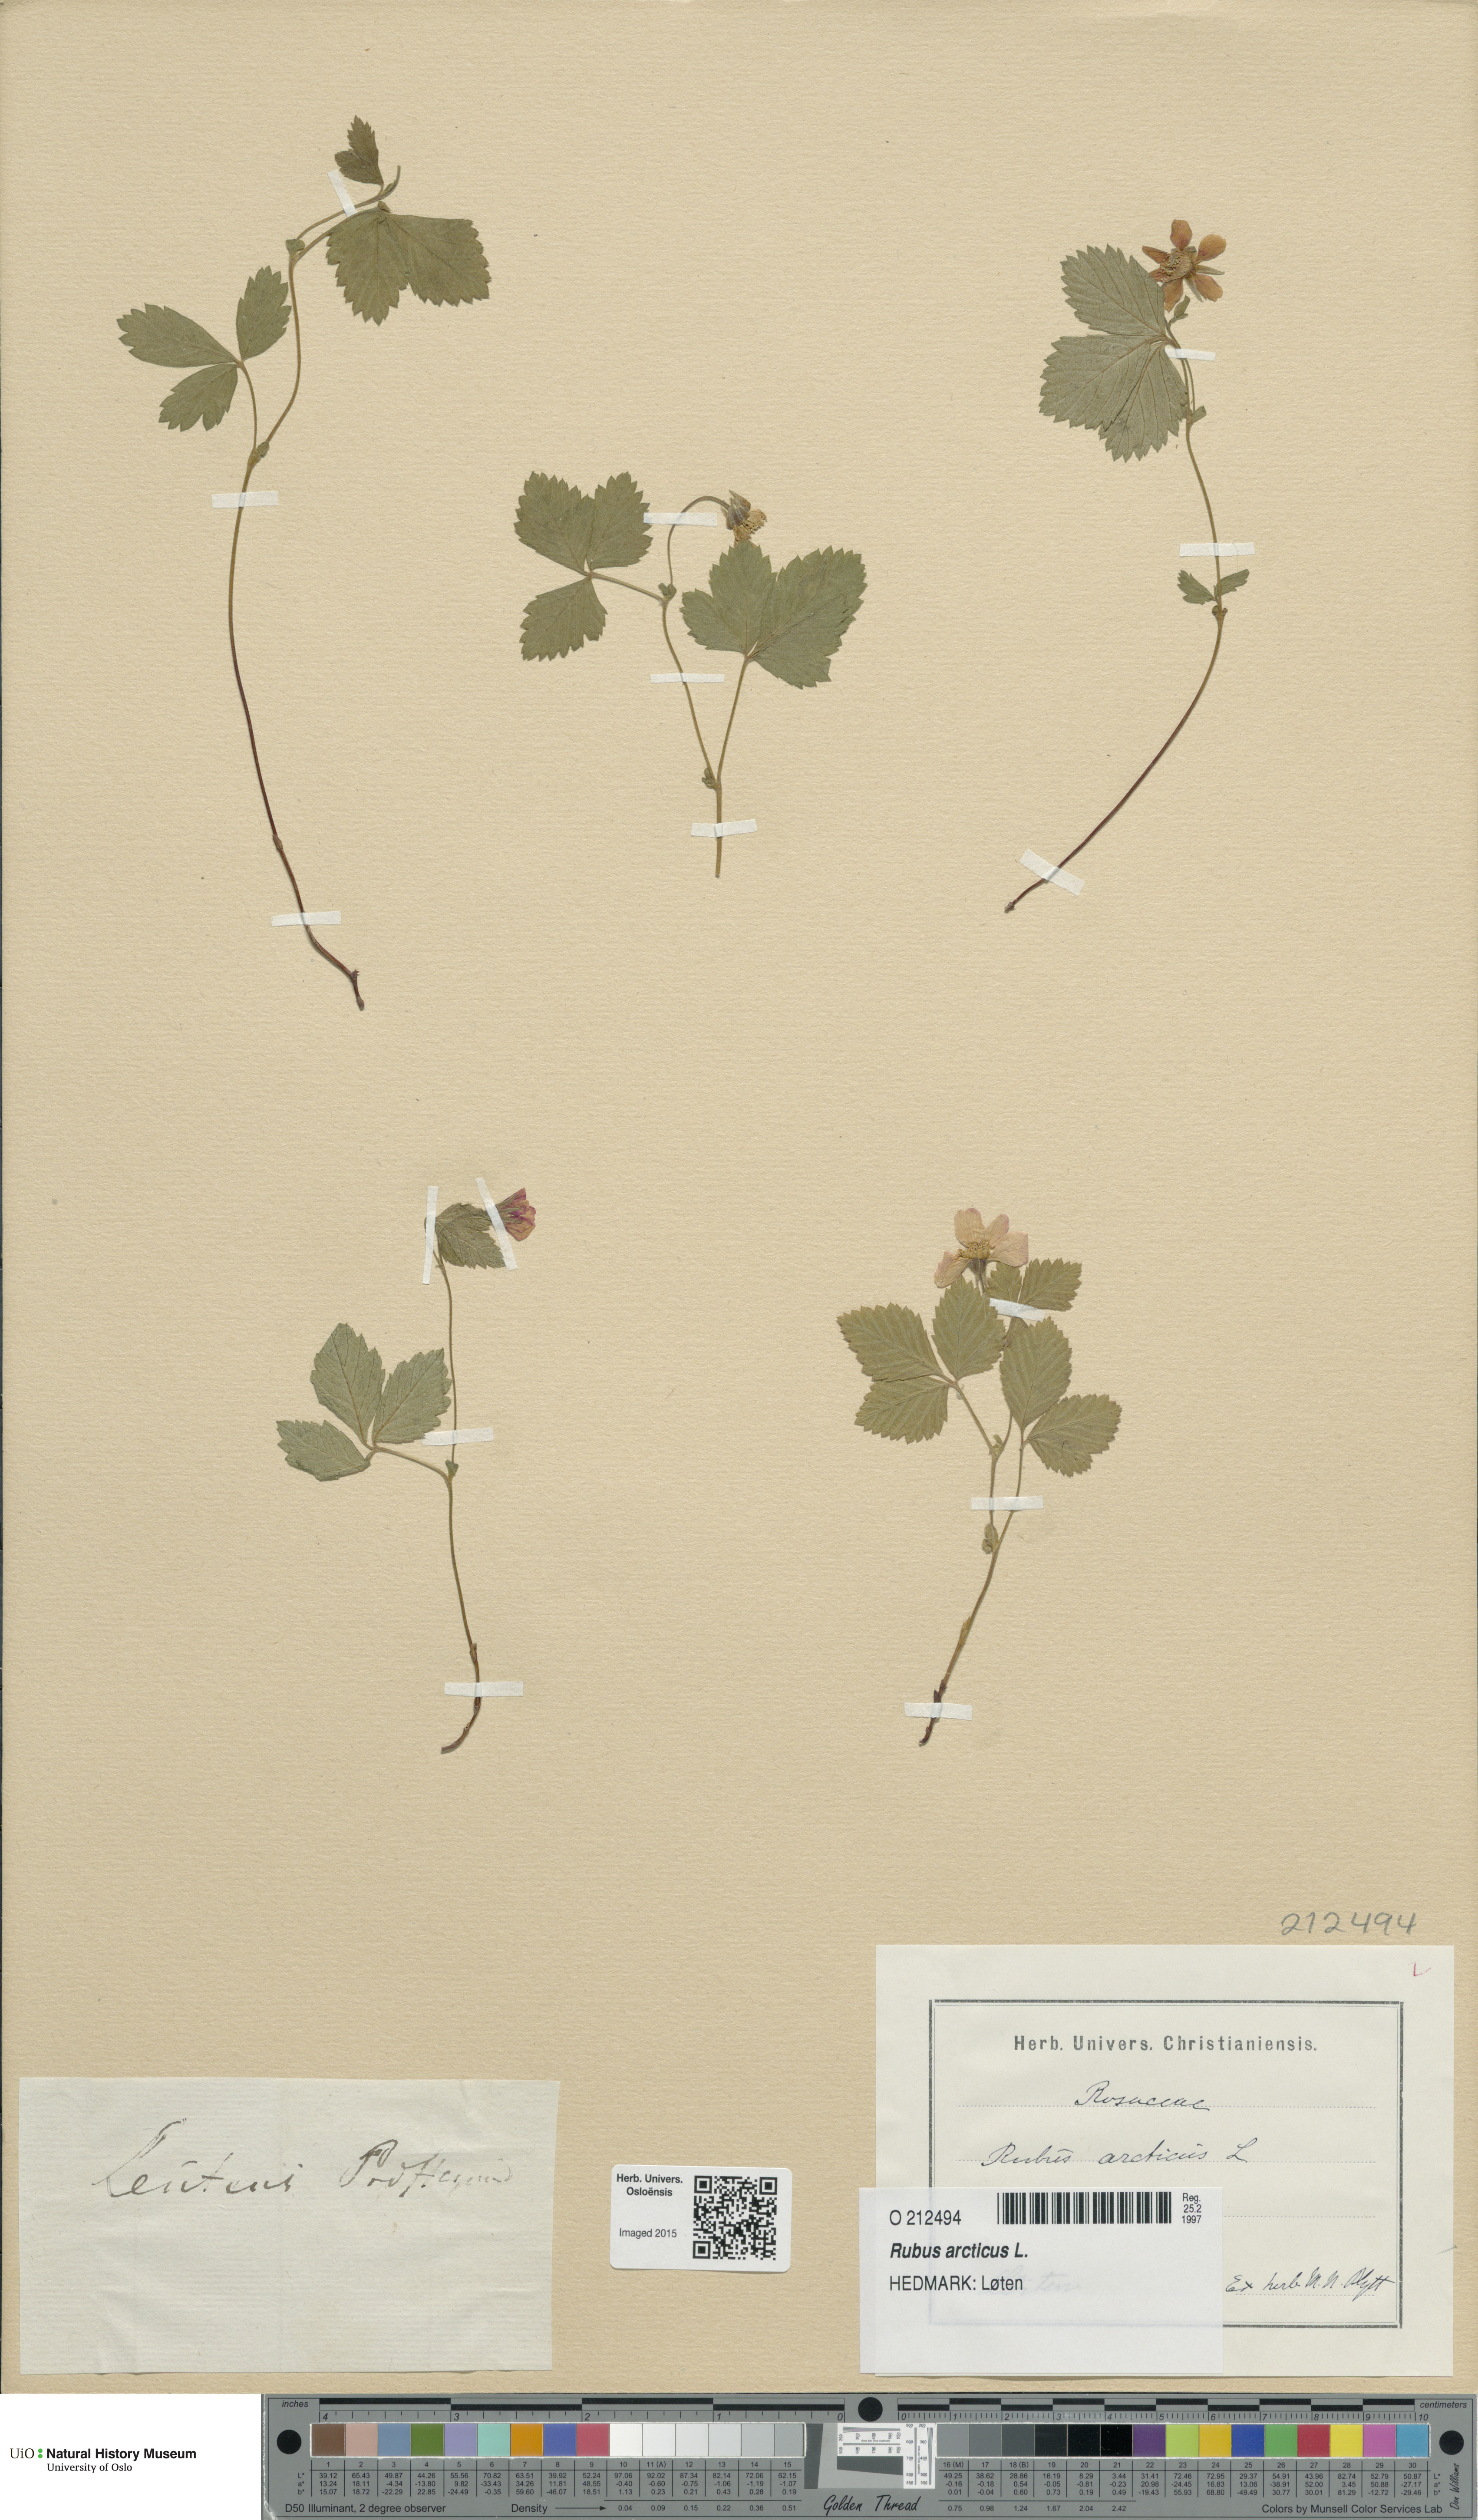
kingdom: Plantae
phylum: Tracheophyta
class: Magnoliopsida
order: Rosales
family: Rosaceae
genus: Rubus
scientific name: Rubus arcticus
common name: Arctic bramble
